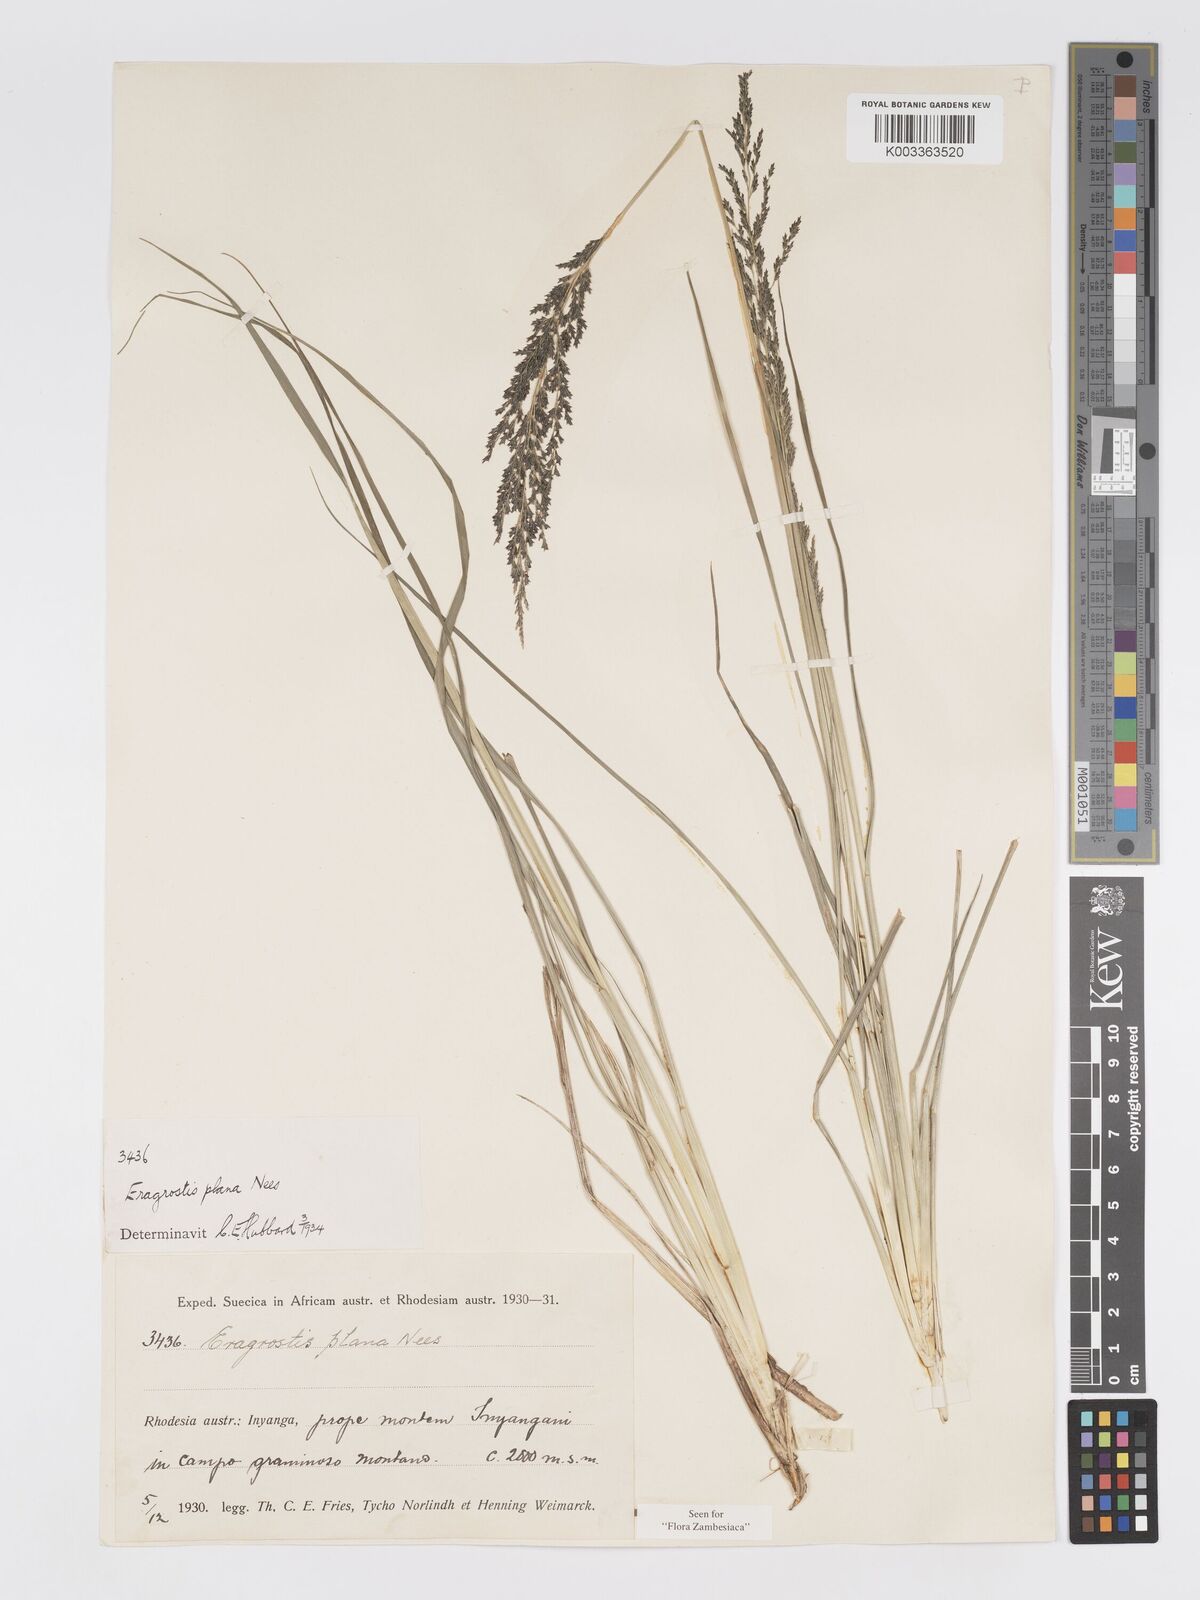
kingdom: Plantae
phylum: Tracheophyta
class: Liliopsida
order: Poales
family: Poaceae
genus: Eragrostis
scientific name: Eragrostis plana
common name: South african lovegrass
